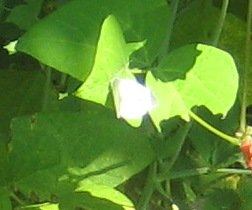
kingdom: Animalia
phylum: Arthropoda
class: Insecta
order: Lepidoptera
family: Pieridae
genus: Pieris
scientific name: Pieris rapae
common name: Cabbage White
